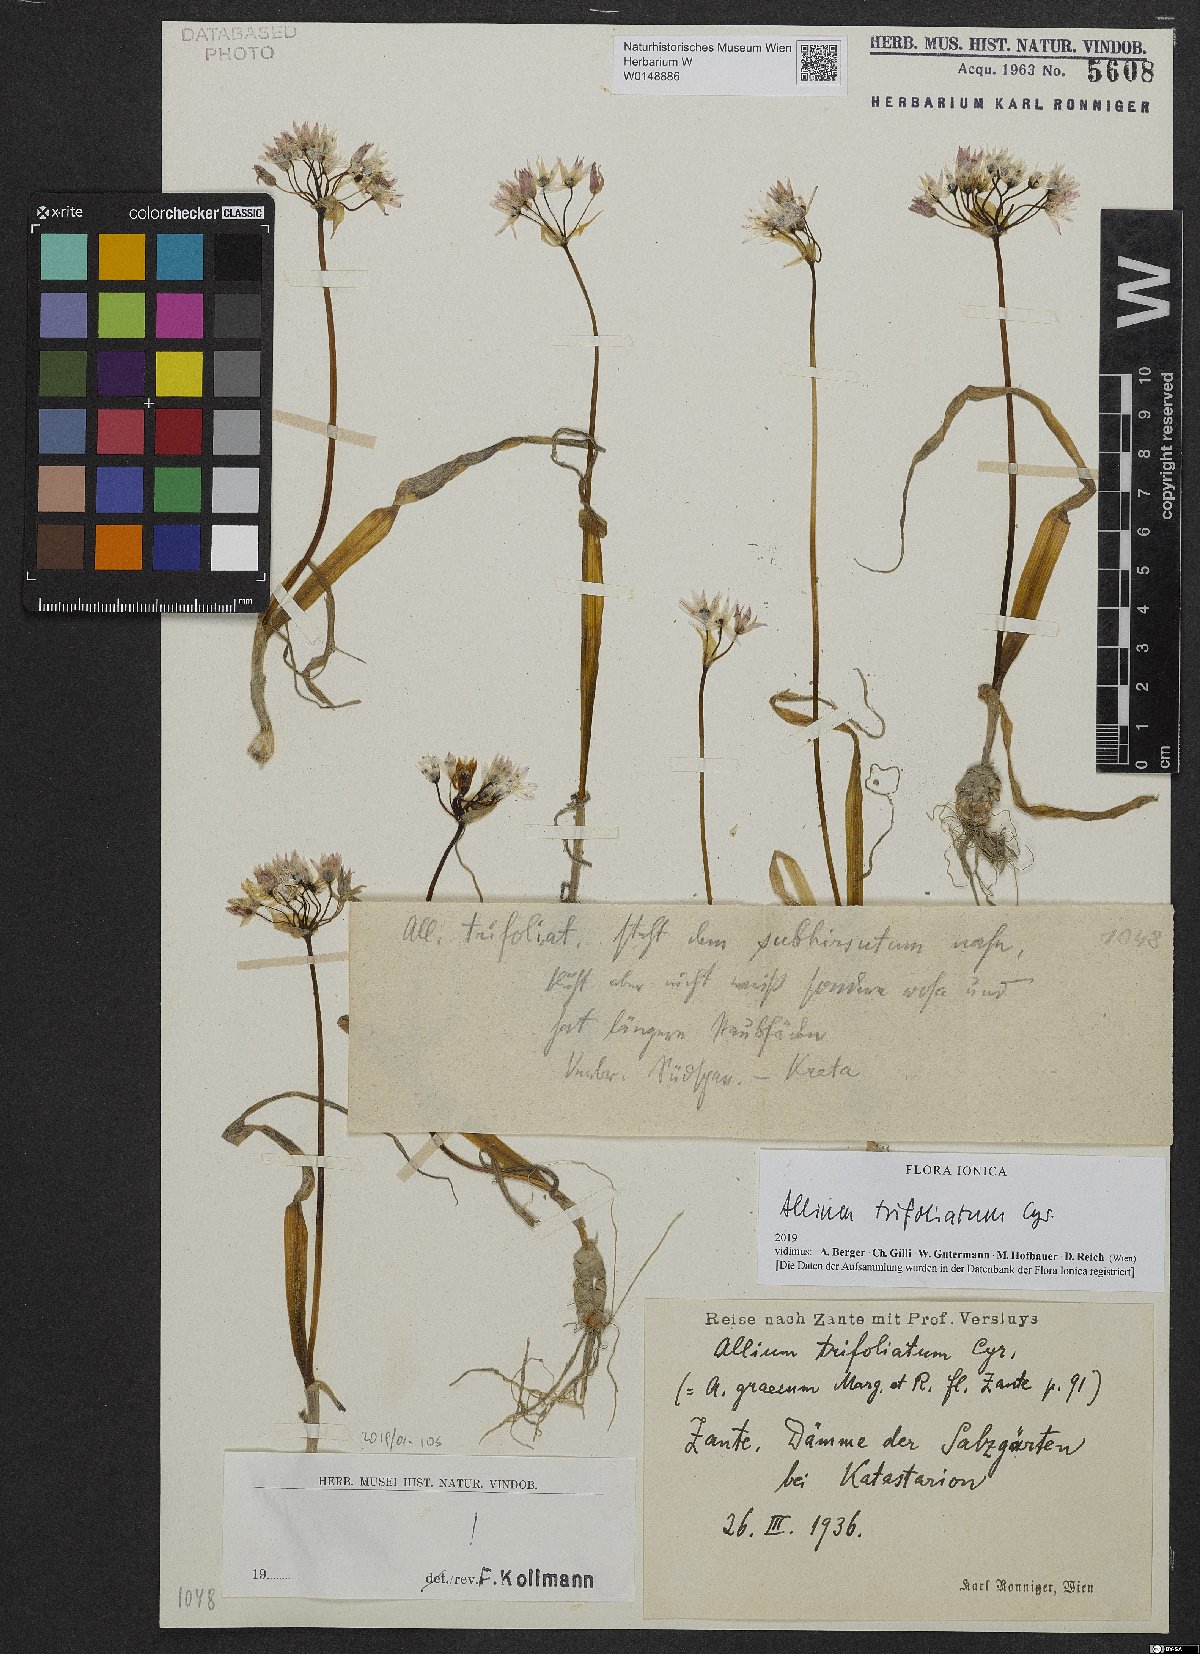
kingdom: Plantae
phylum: Tracheophyta
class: Liliopsida
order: Asparagales
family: Amaryllidaceae
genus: Allium
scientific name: Allium trifoliatum
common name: Pink garlic
